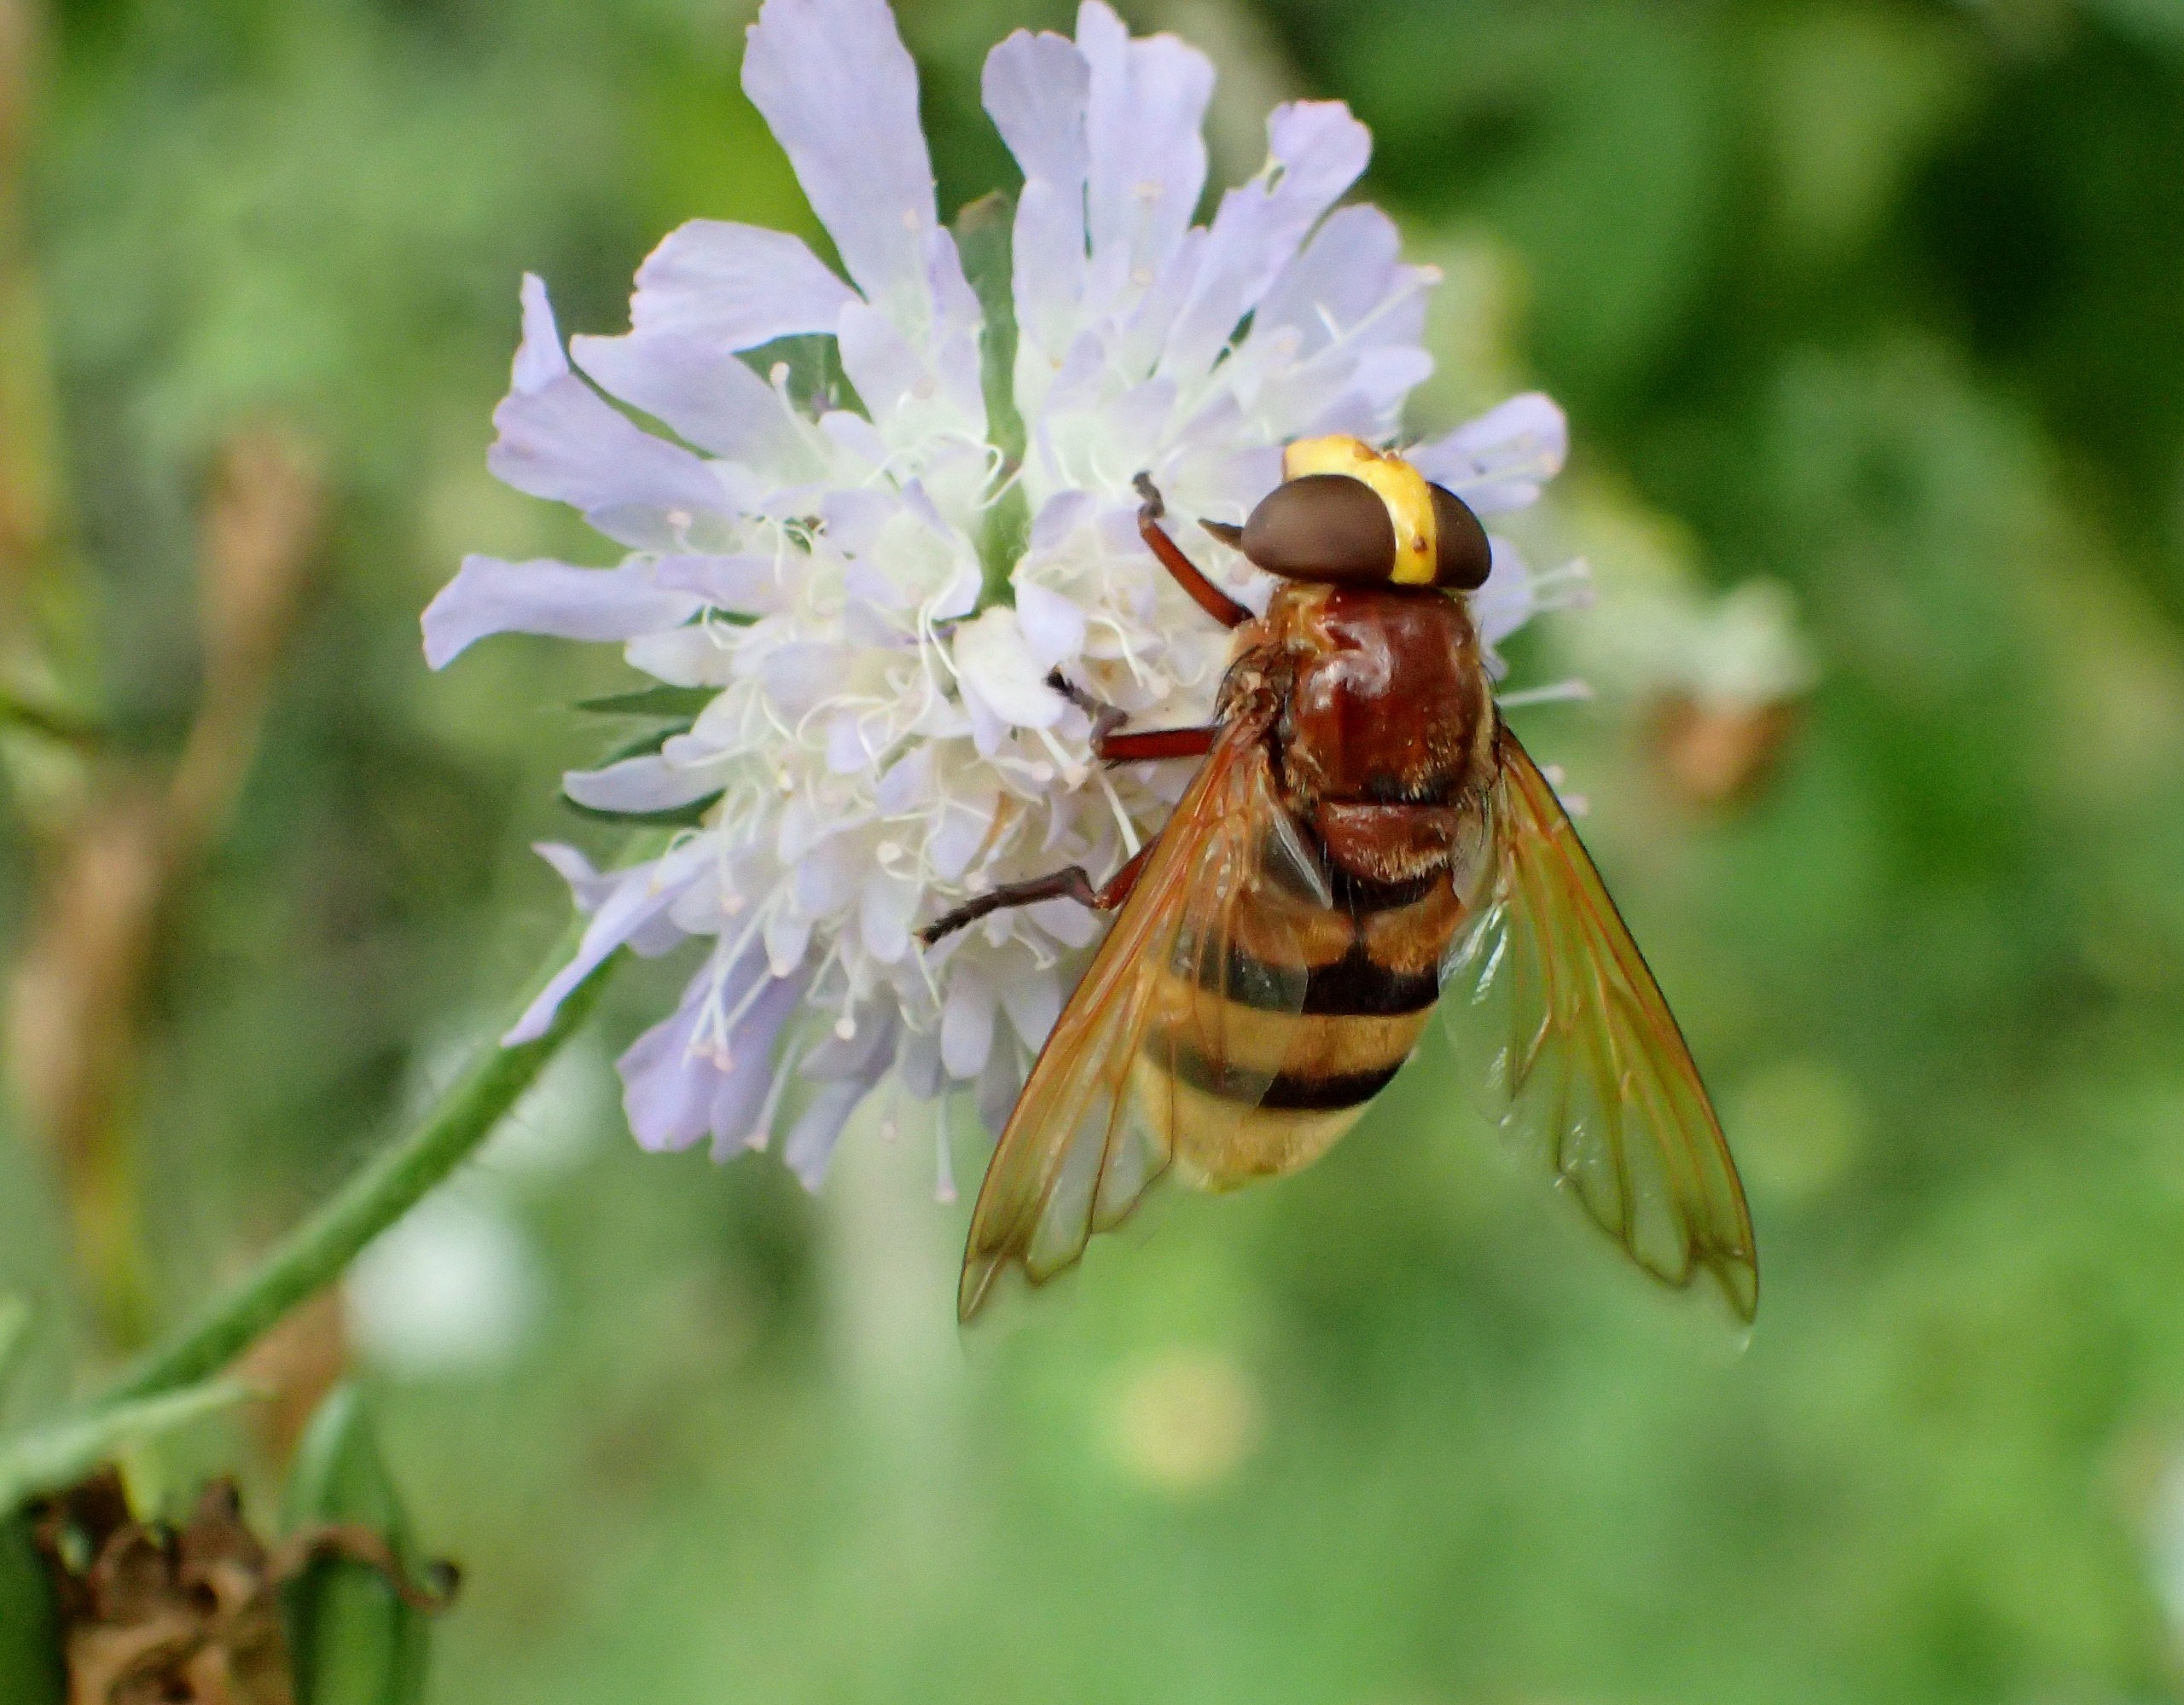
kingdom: Animalia
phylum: Arthropoda
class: Insecta
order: Diptera
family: Syrphidae
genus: Volucella
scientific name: Volucella zonaria
